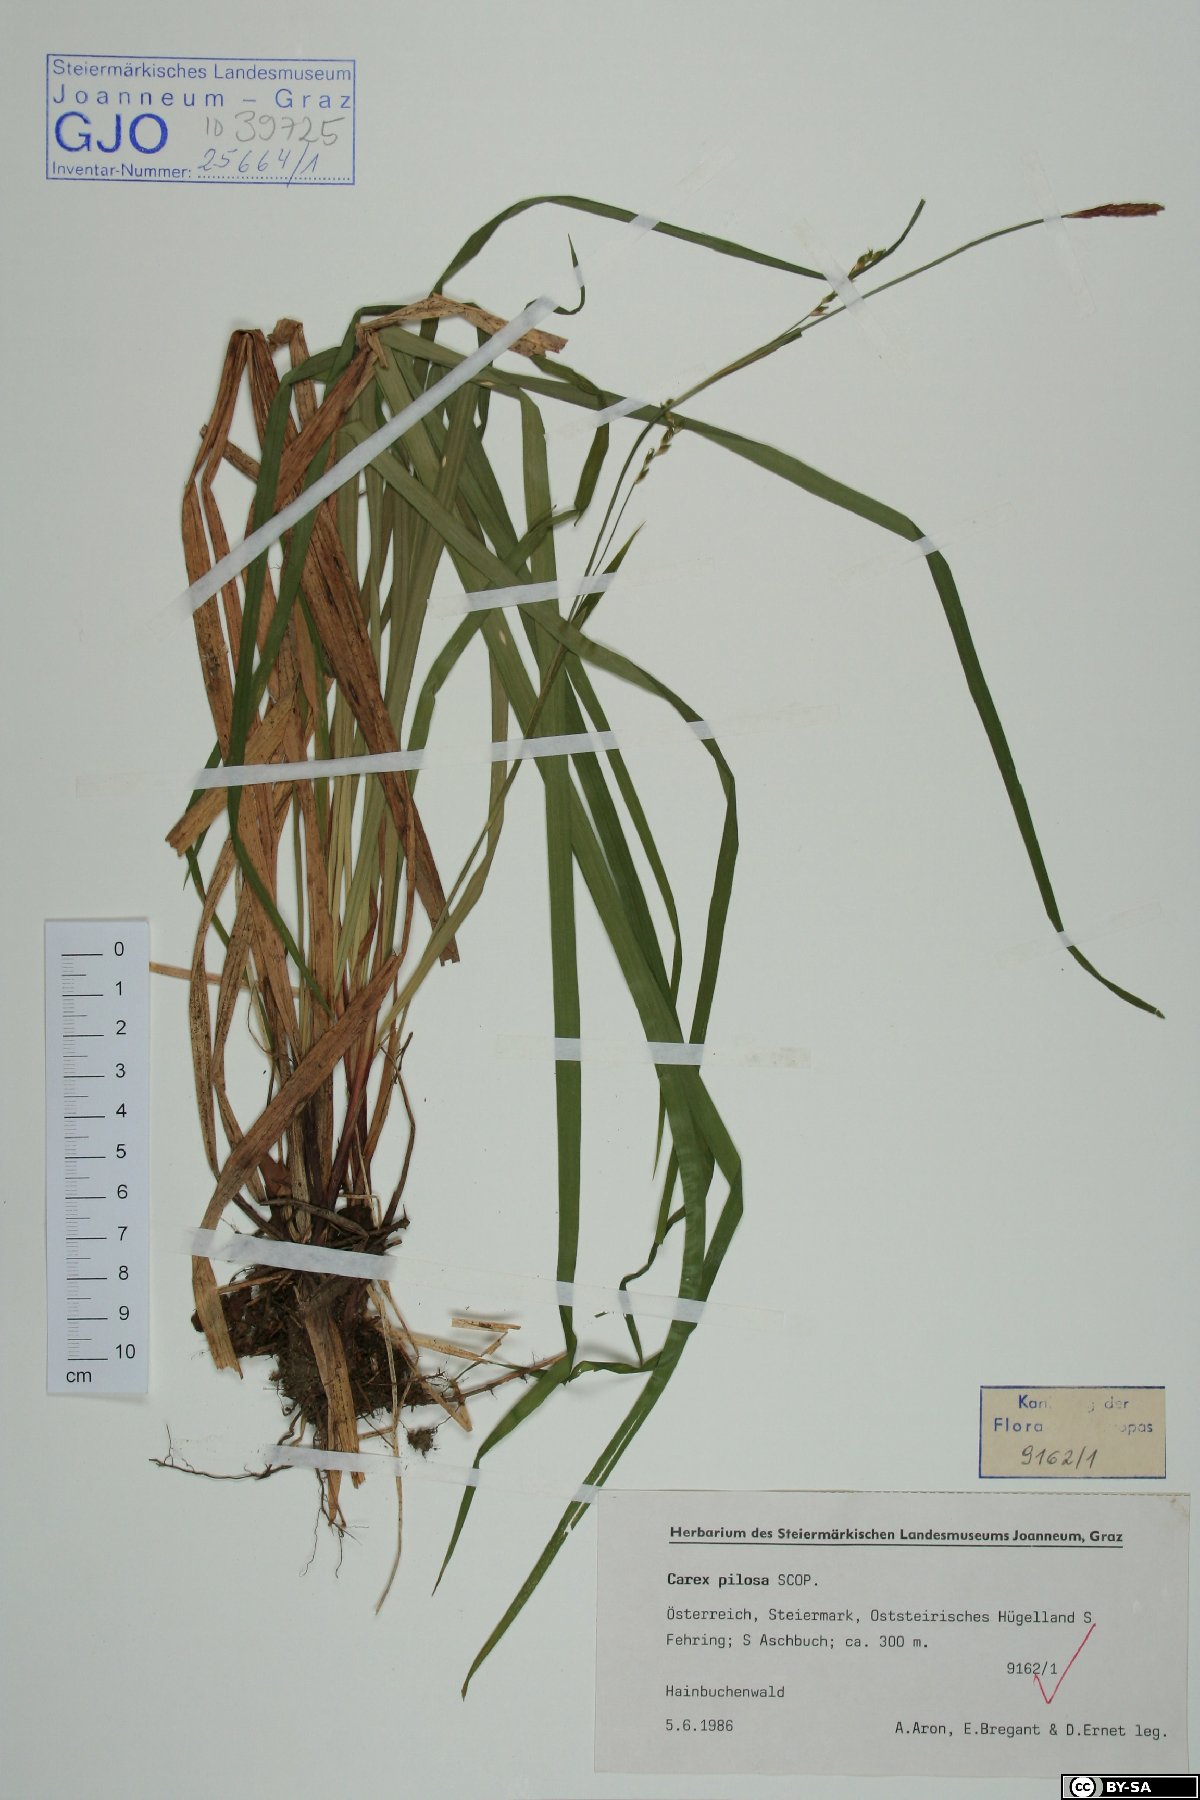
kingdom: Plantae
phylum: Tracheophyta
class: Liliopsida
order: Poales
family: Cyperaceae
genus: Carex
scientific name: Carex pilosa
